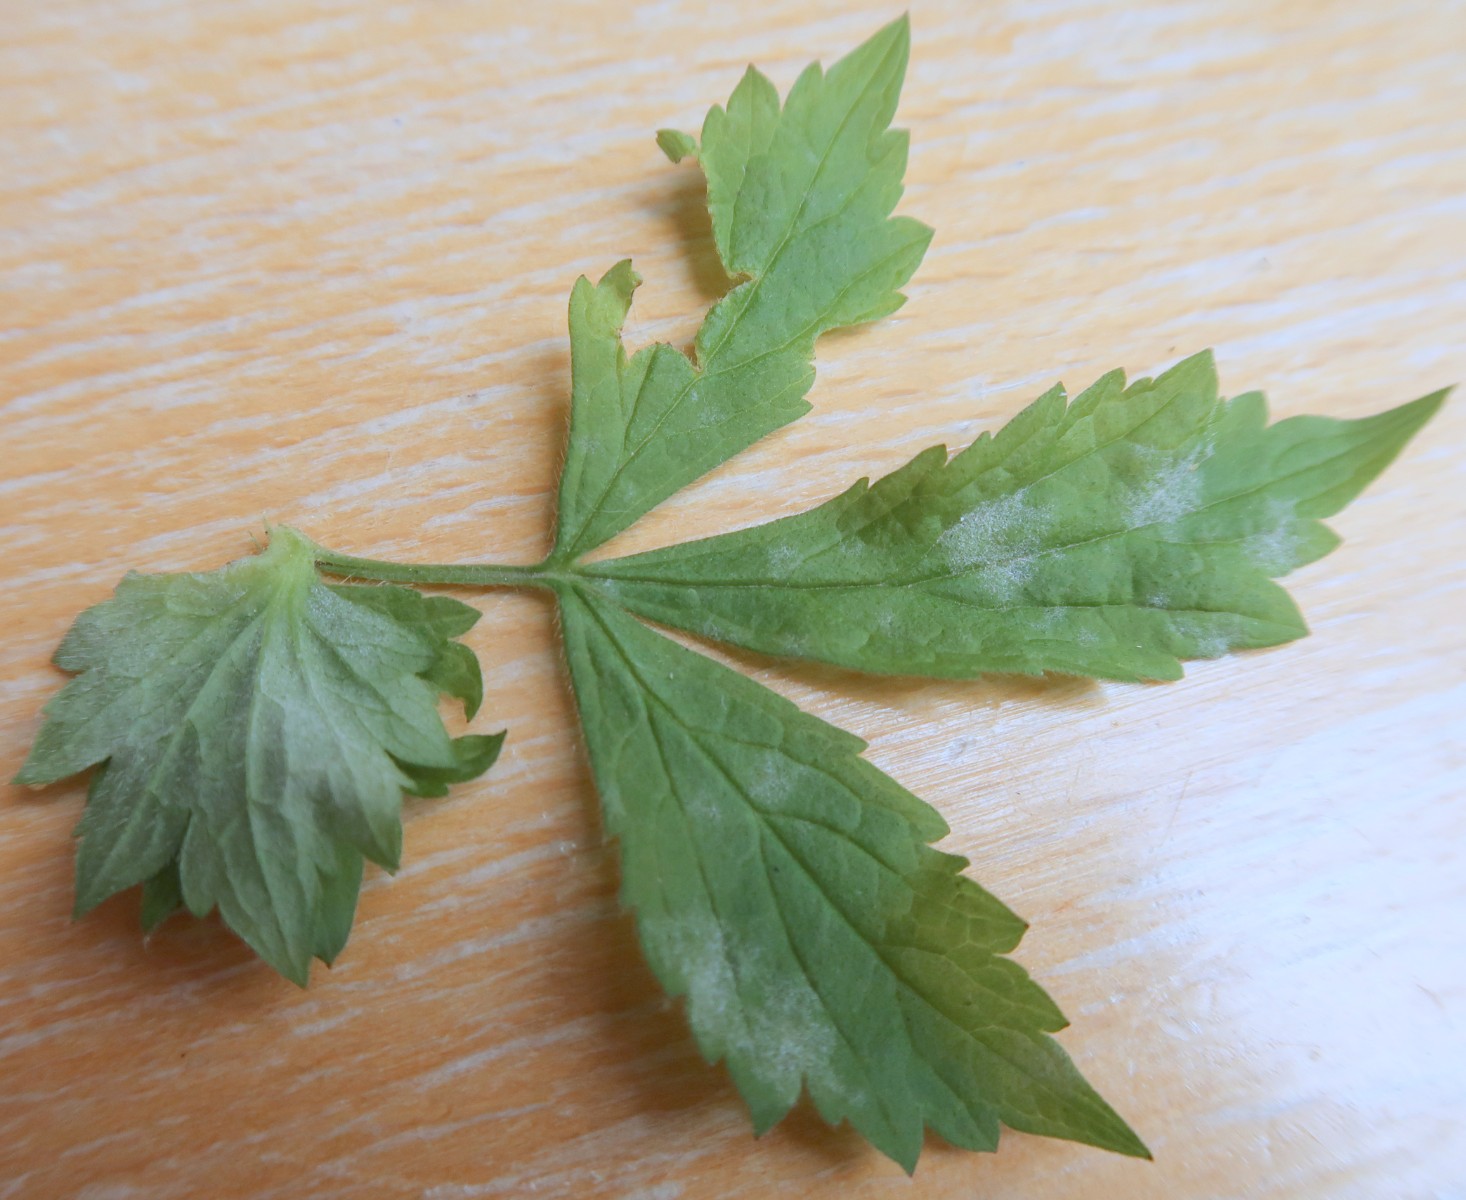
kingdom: Fungi
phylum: Ascomycota
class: Leotiomycetes
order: Helotiales
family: Erysiphaceae
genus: Podosphaera
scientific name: Podosphaera aphanis
